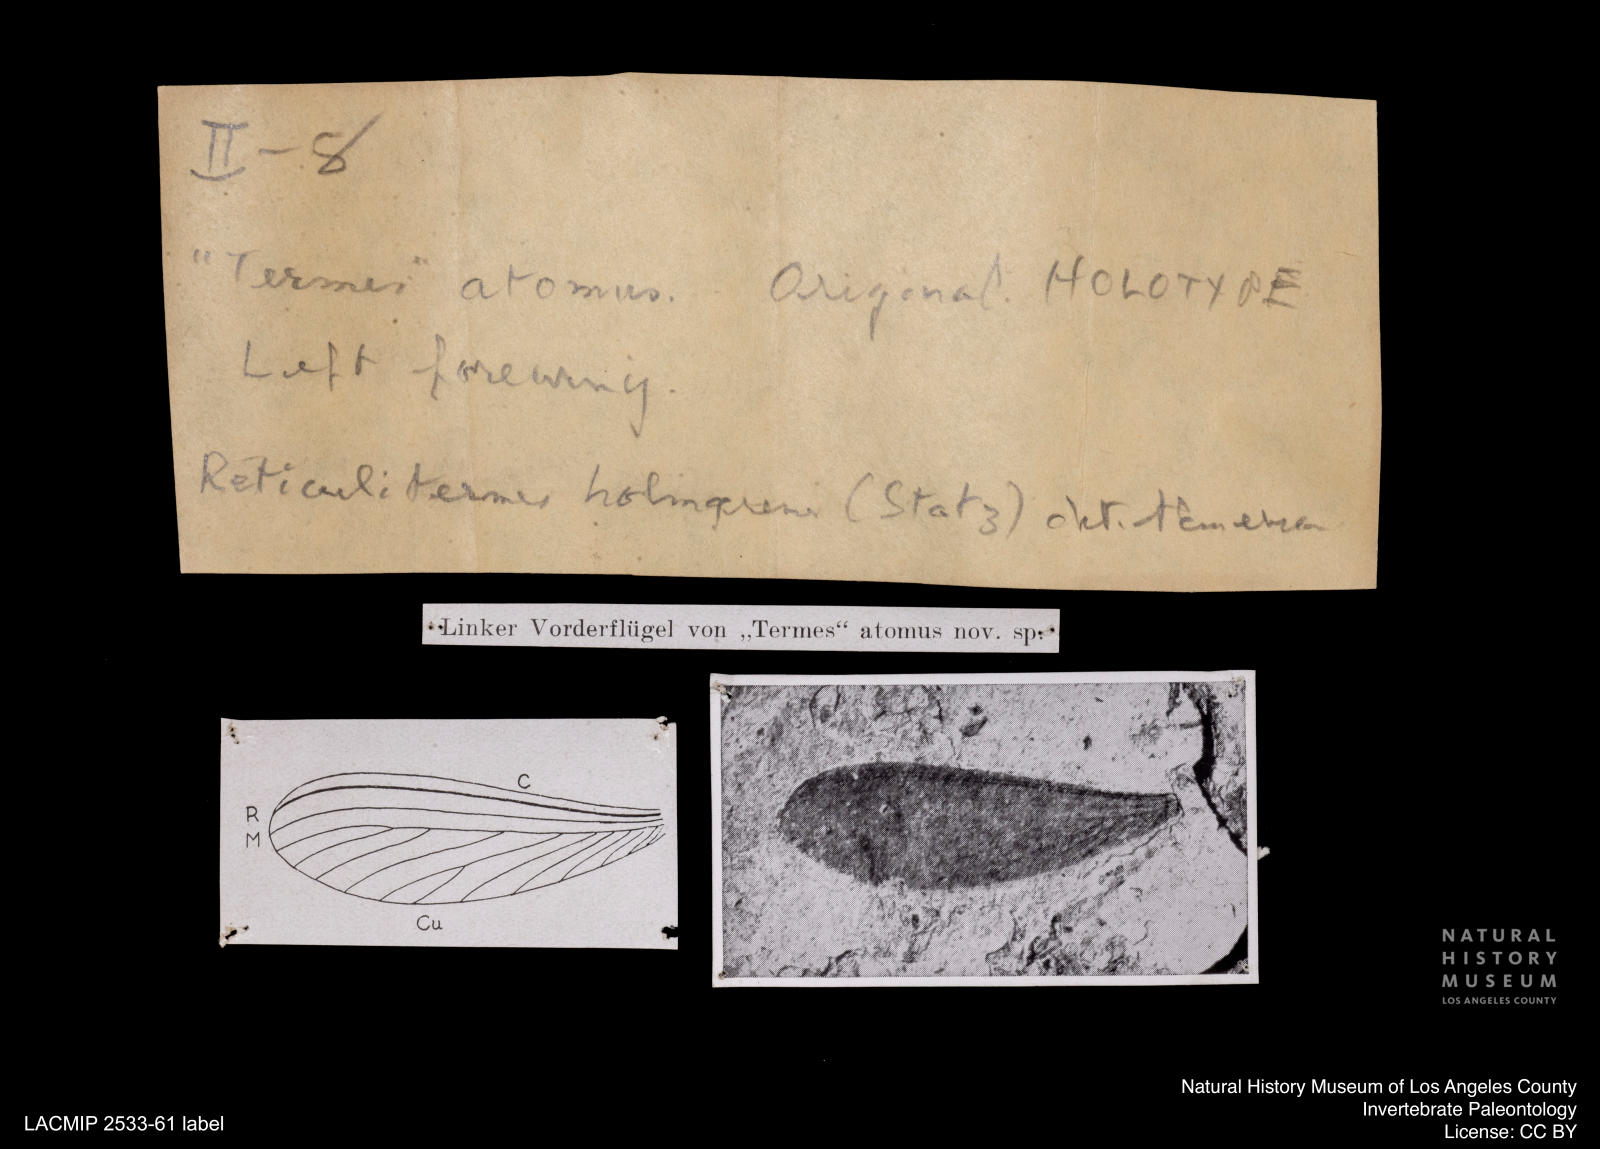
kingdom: Animalia
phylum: Arthropoda
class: Insecta
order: Blattodea
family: Rhinotermitidae
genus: Reticulitermes
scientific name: Reticulitermes holmgreni
